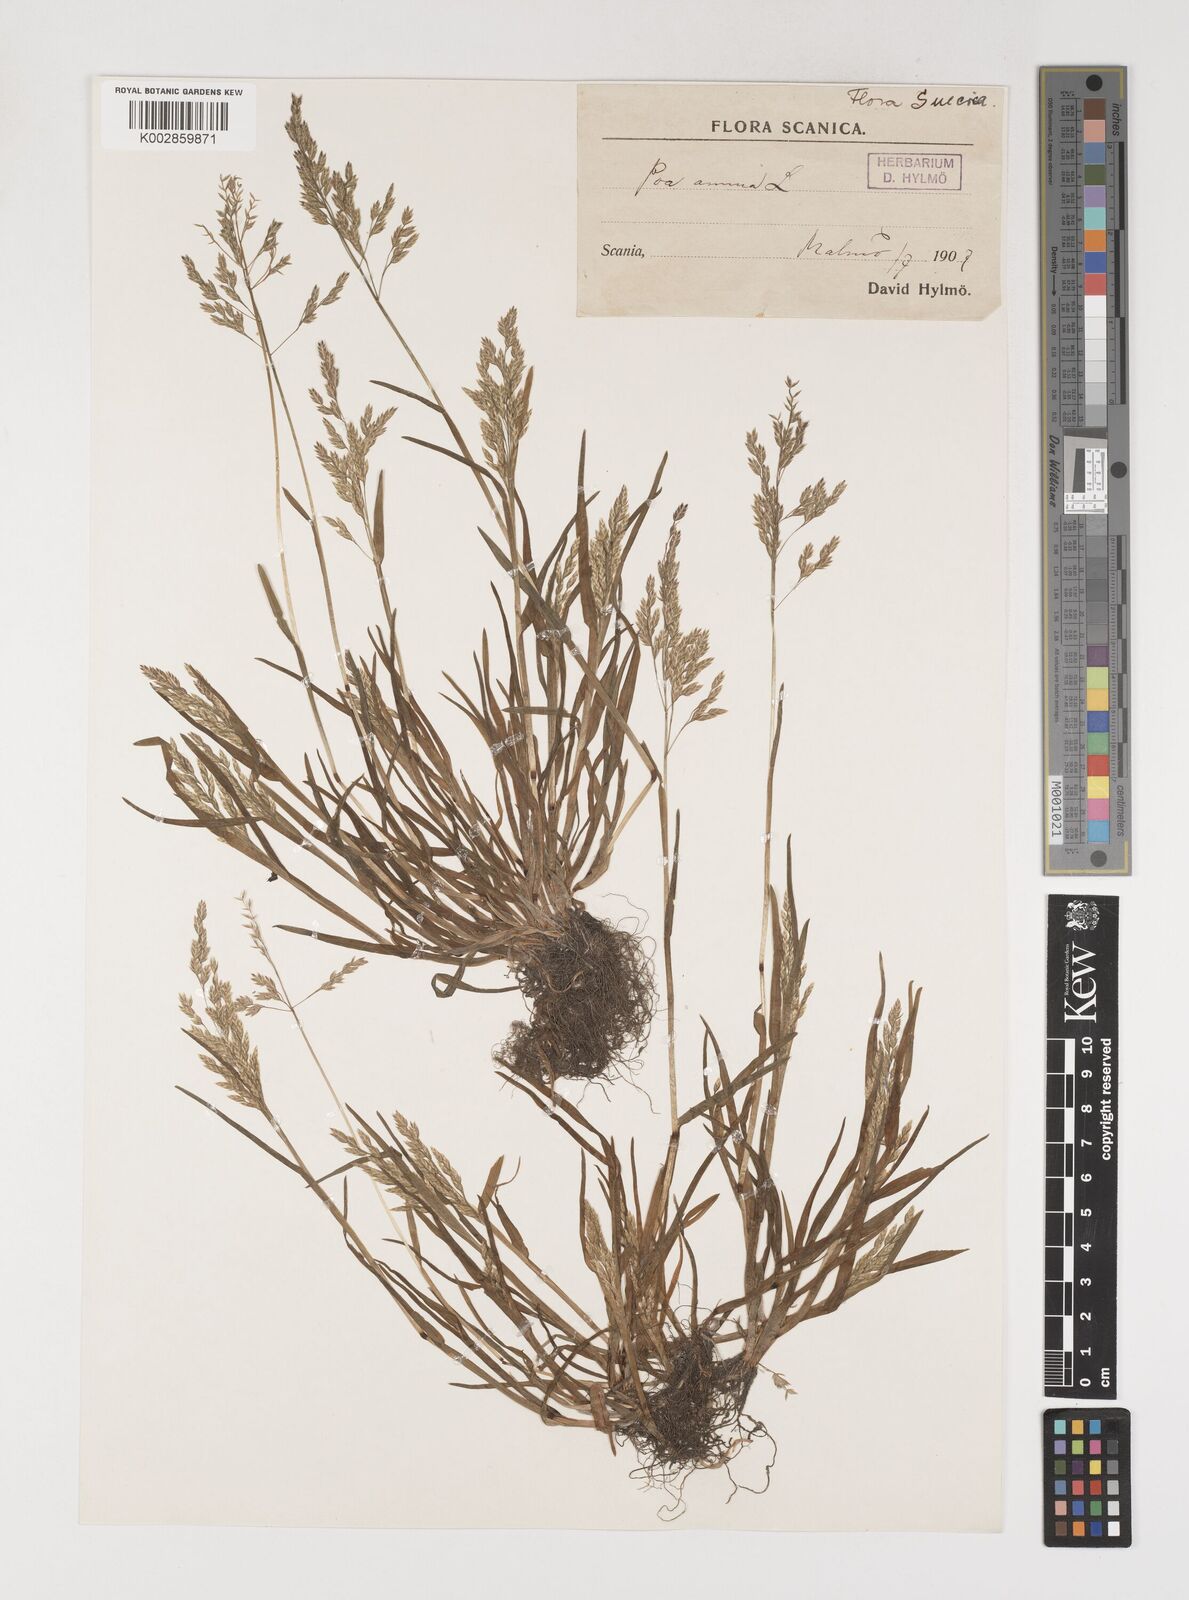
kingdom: Plantae
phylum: Tracheophyta
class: Liliopsida
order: Poales
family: Poaceae
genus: Poa
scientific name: Poa annua
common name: Annual bluegrass
